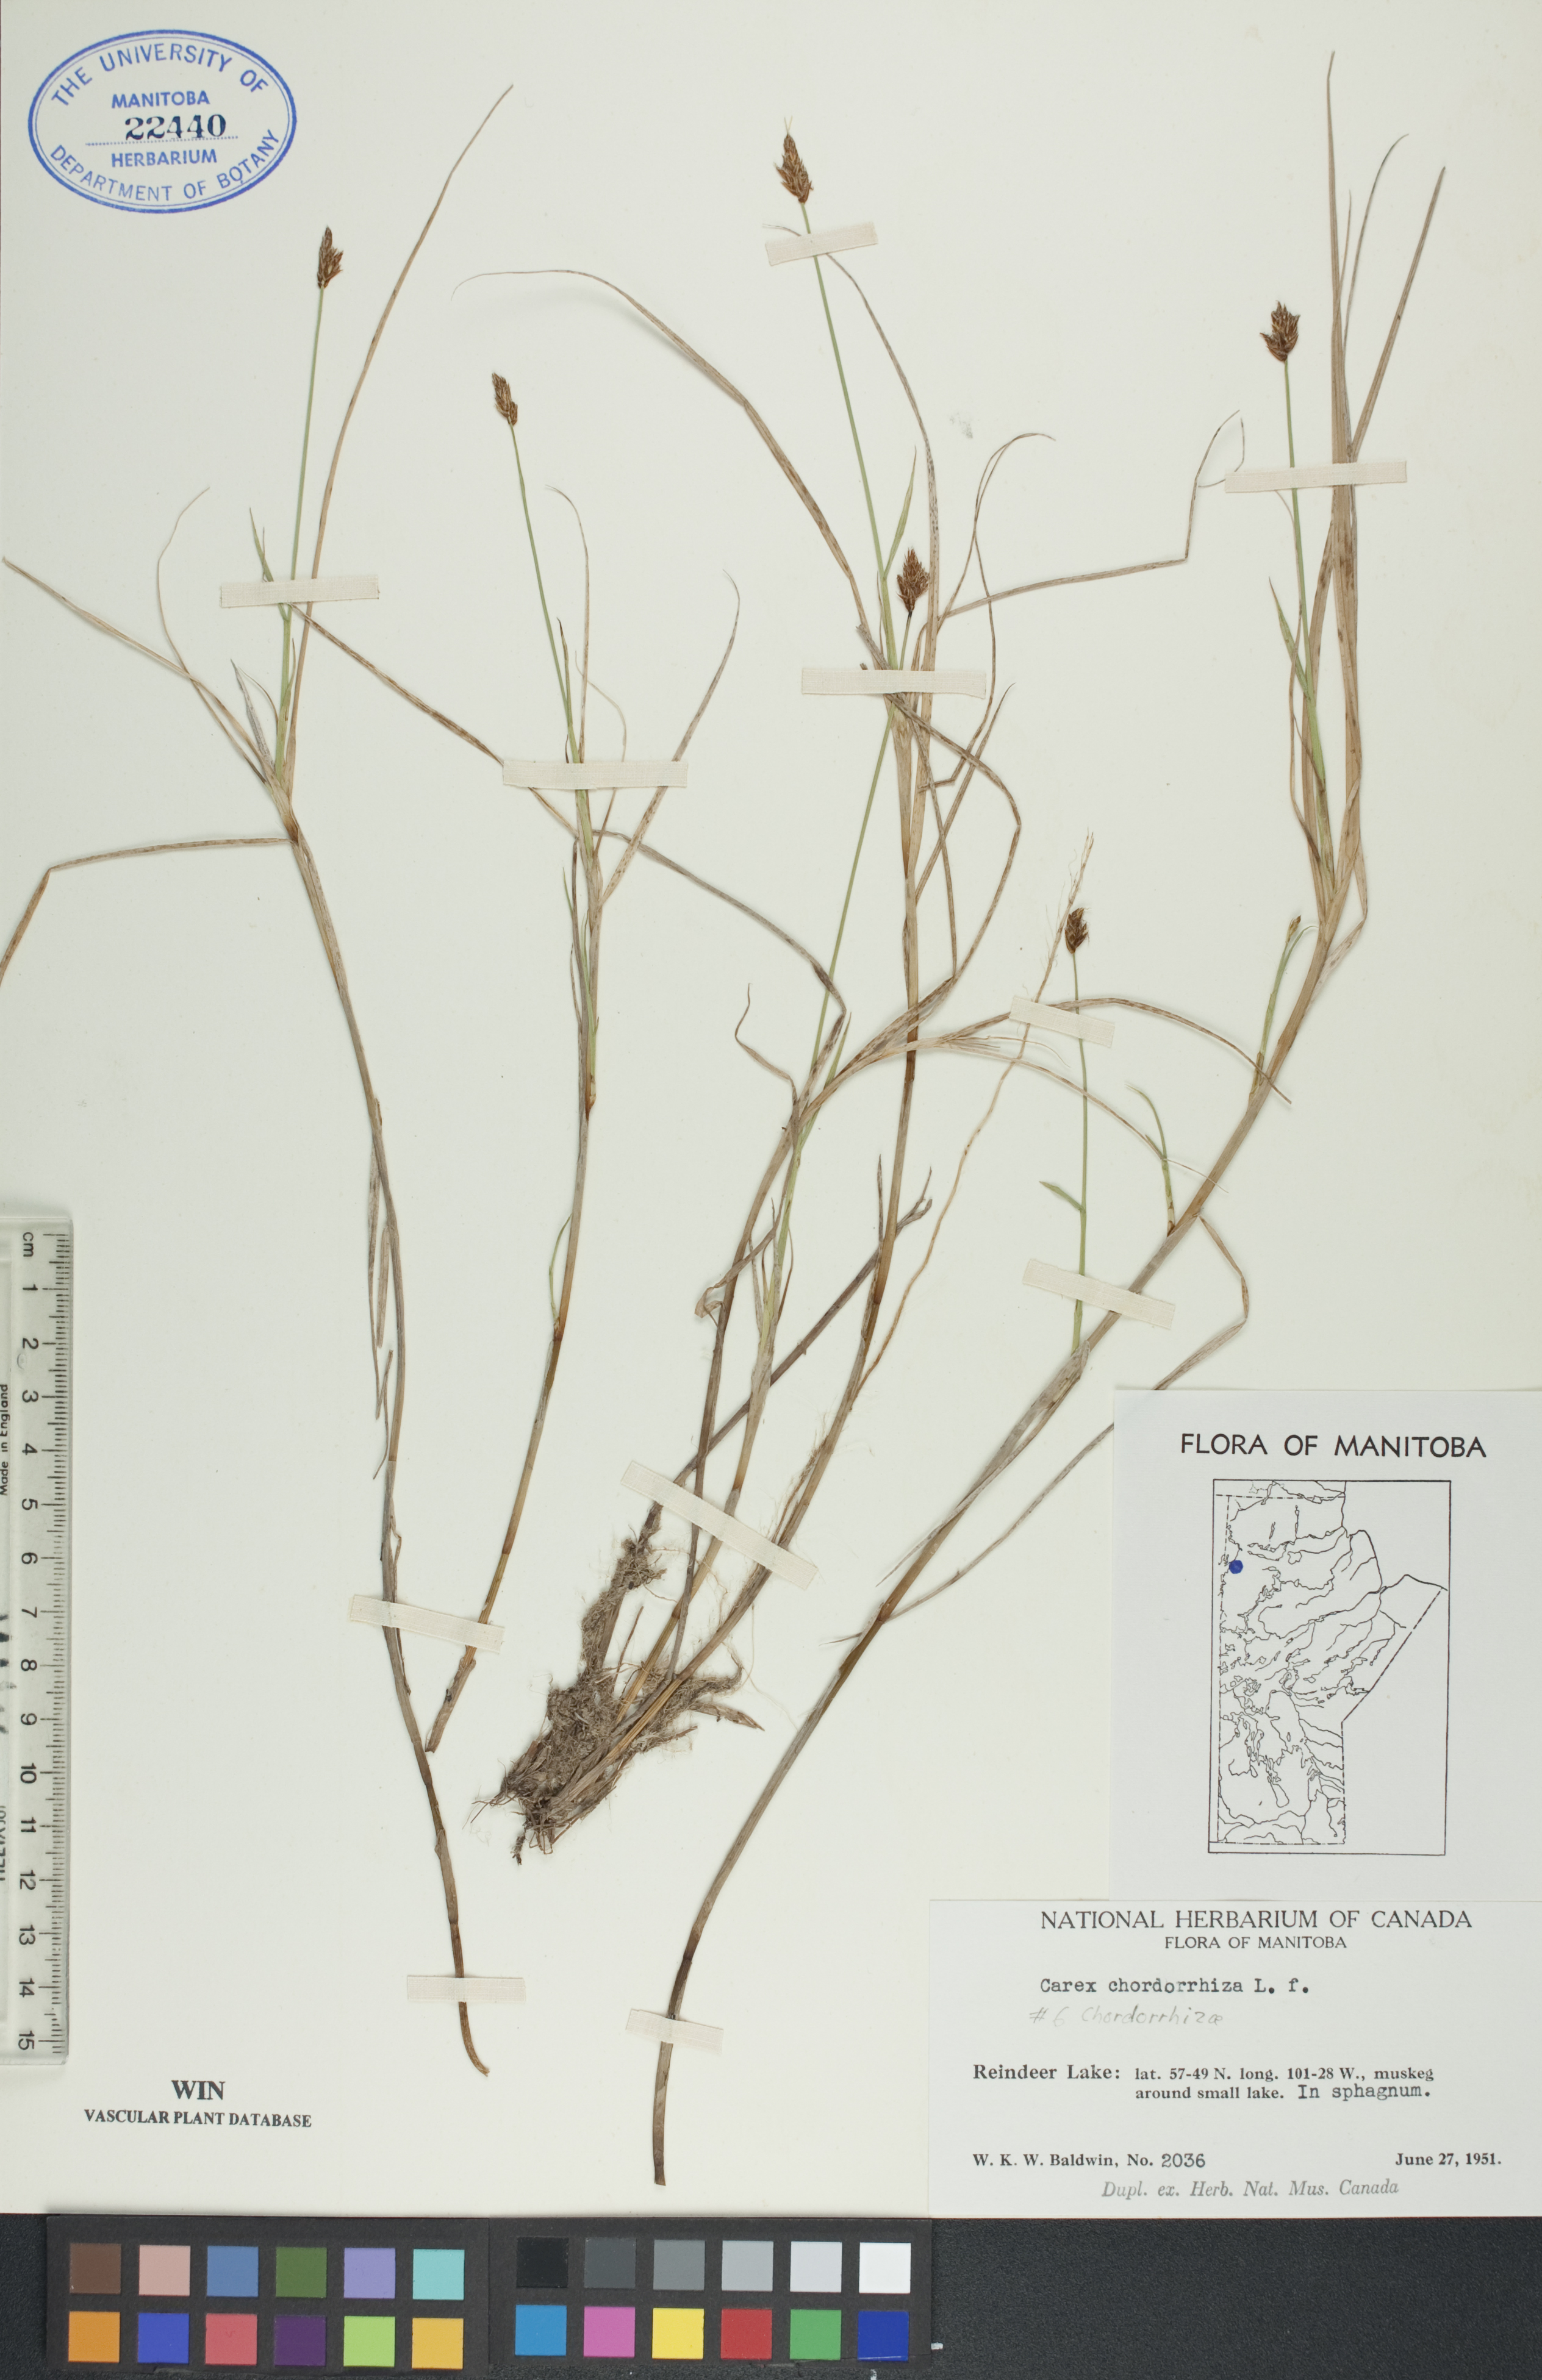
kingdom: Plantae
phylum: Tracheophyta
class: Liliopsida
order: Poales
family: Cyperaceae
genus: Carex
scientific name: Carex chordorrhiza
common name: String sedge
